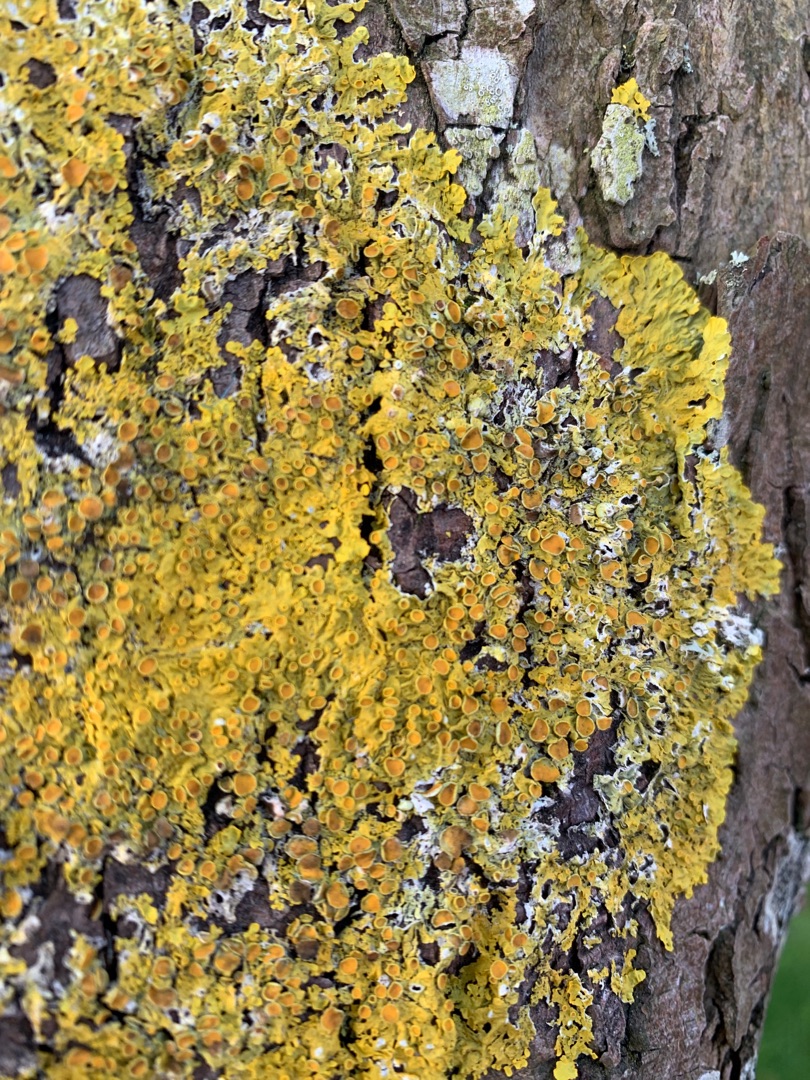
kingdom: Fungi
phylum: Ascomycota
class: Lecanoromycetes
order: Teloschistales
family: Teloschistaceae
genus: Xanthoria
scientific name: Xanthoria parietina
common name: Almindelig væggelav
